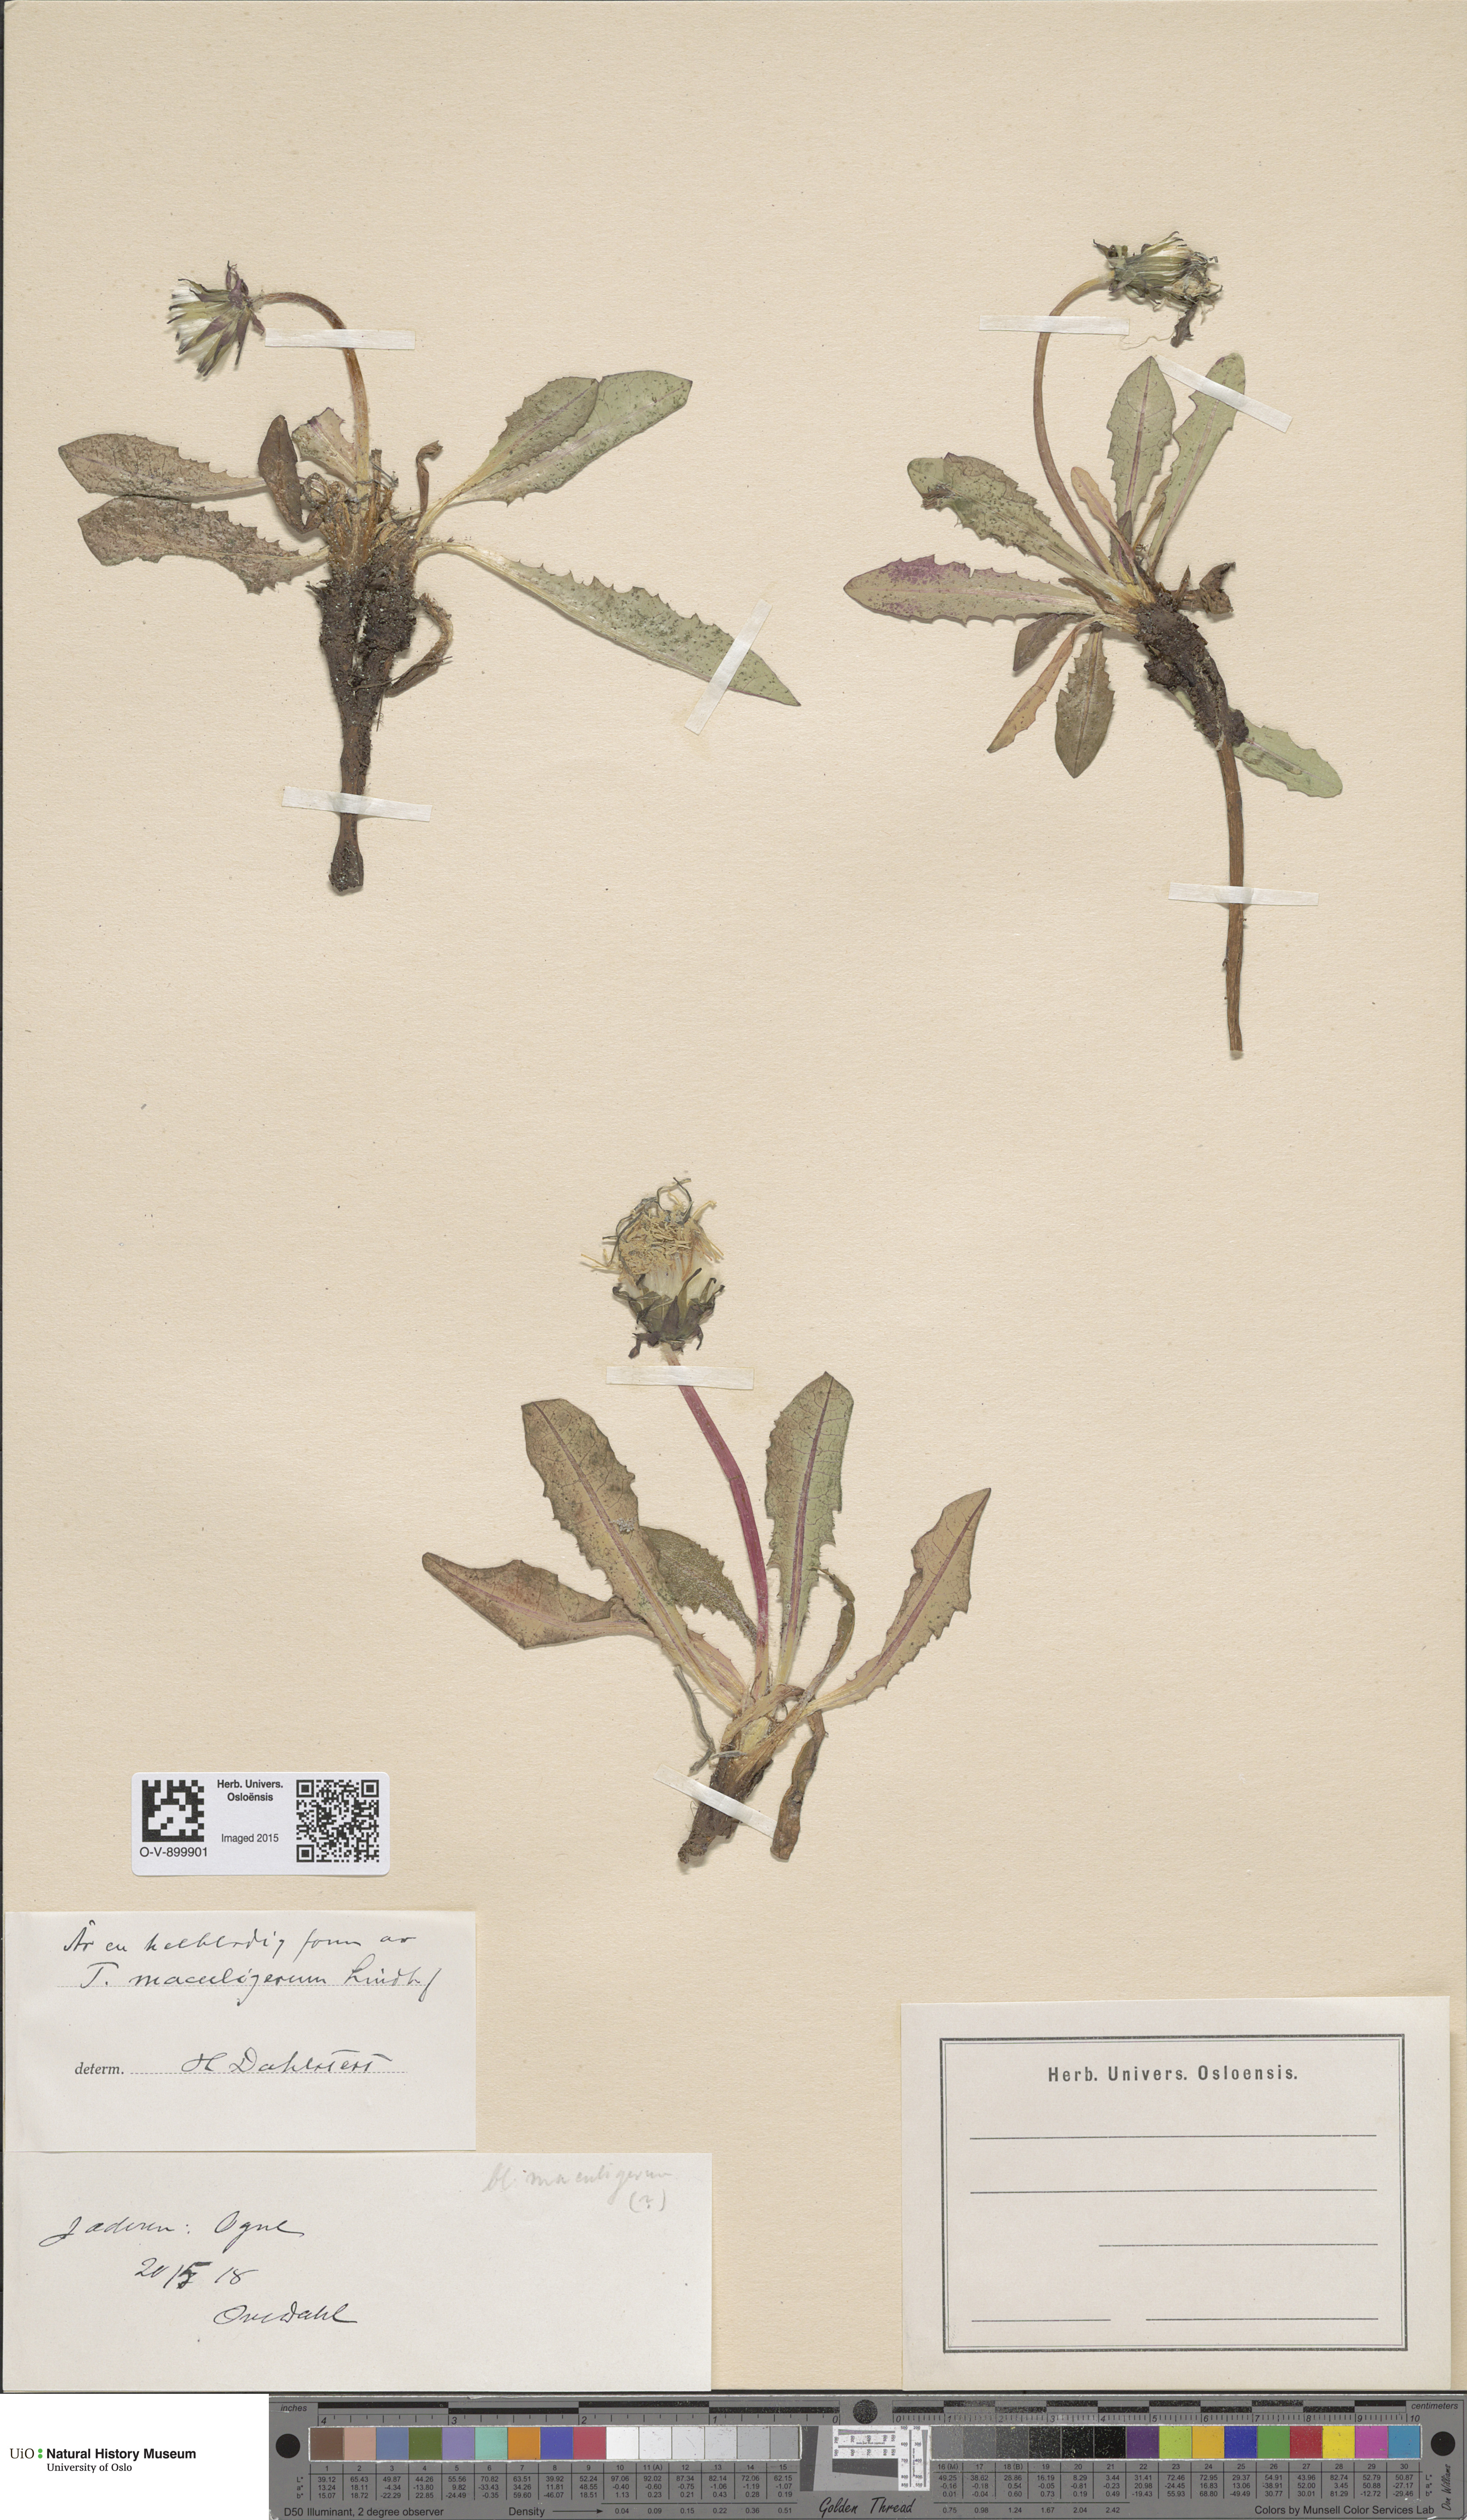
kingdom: Plantae
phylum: Tracheophyta
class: Magnoliopsida
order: Asterales
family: Asteraceae
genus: Taraxacum
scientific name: Taraxacum maculigerum
